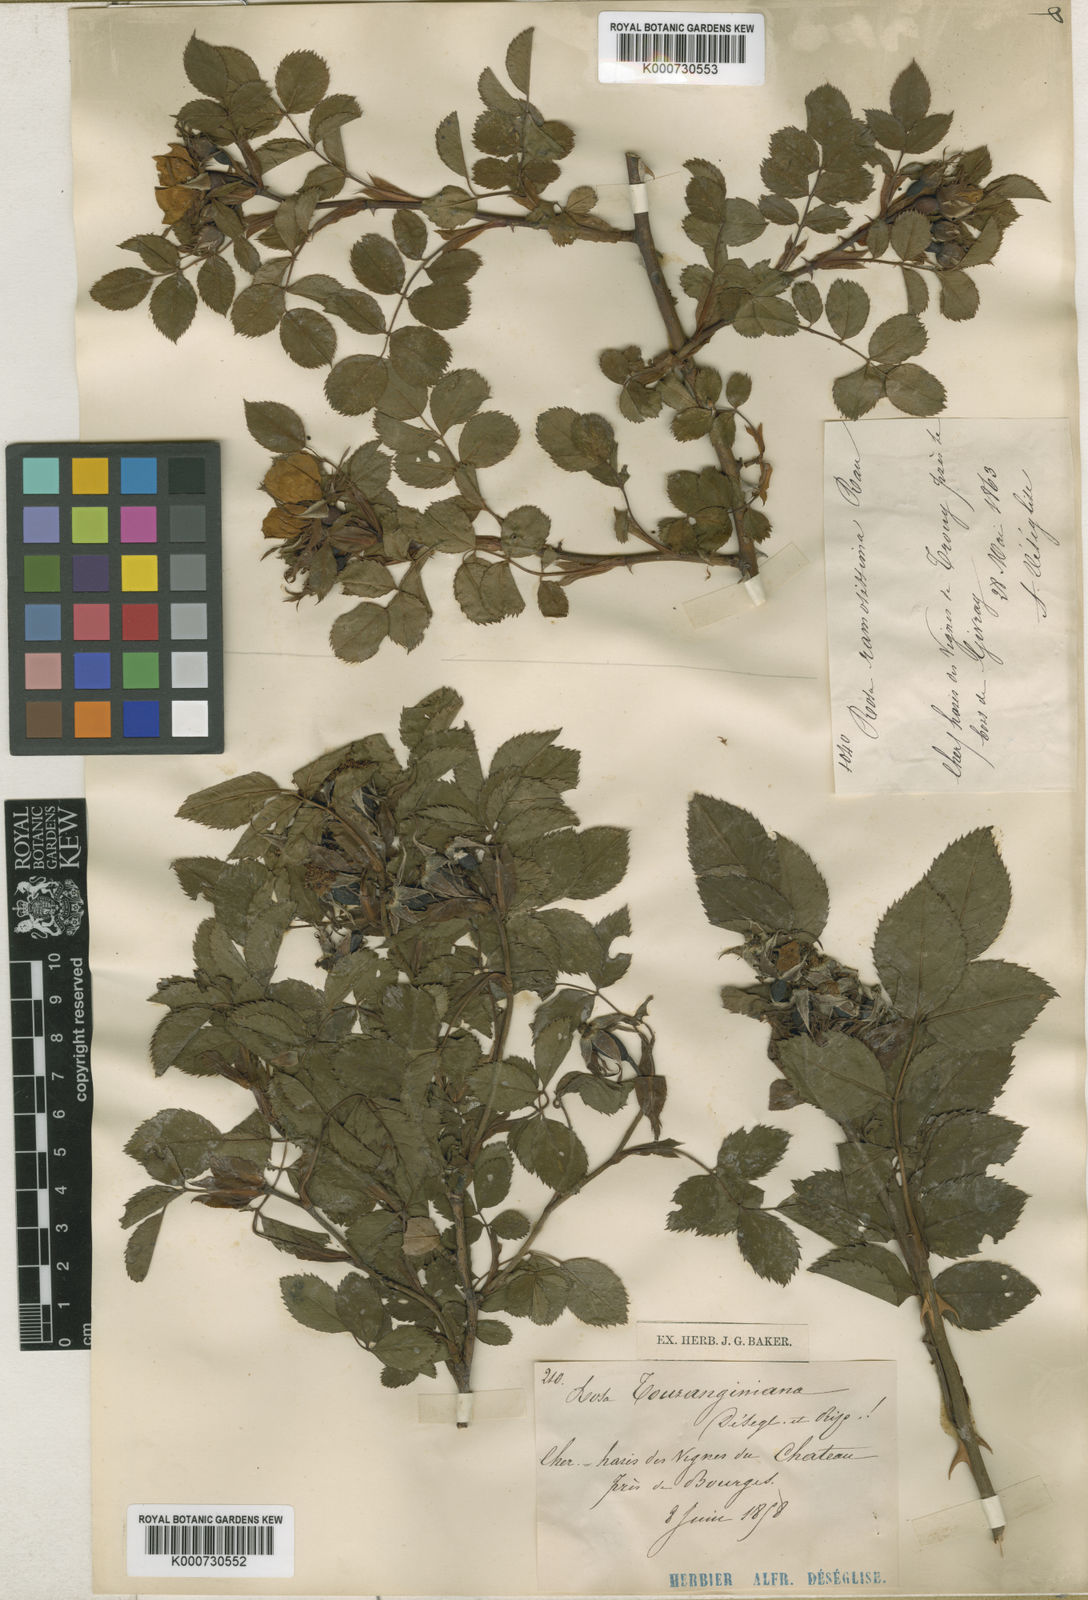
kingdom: Plantae
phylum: Tracheophyta
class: Magnoliopsida
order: Rosales
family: Rosaceae
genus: Rosa
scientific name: Rosa
